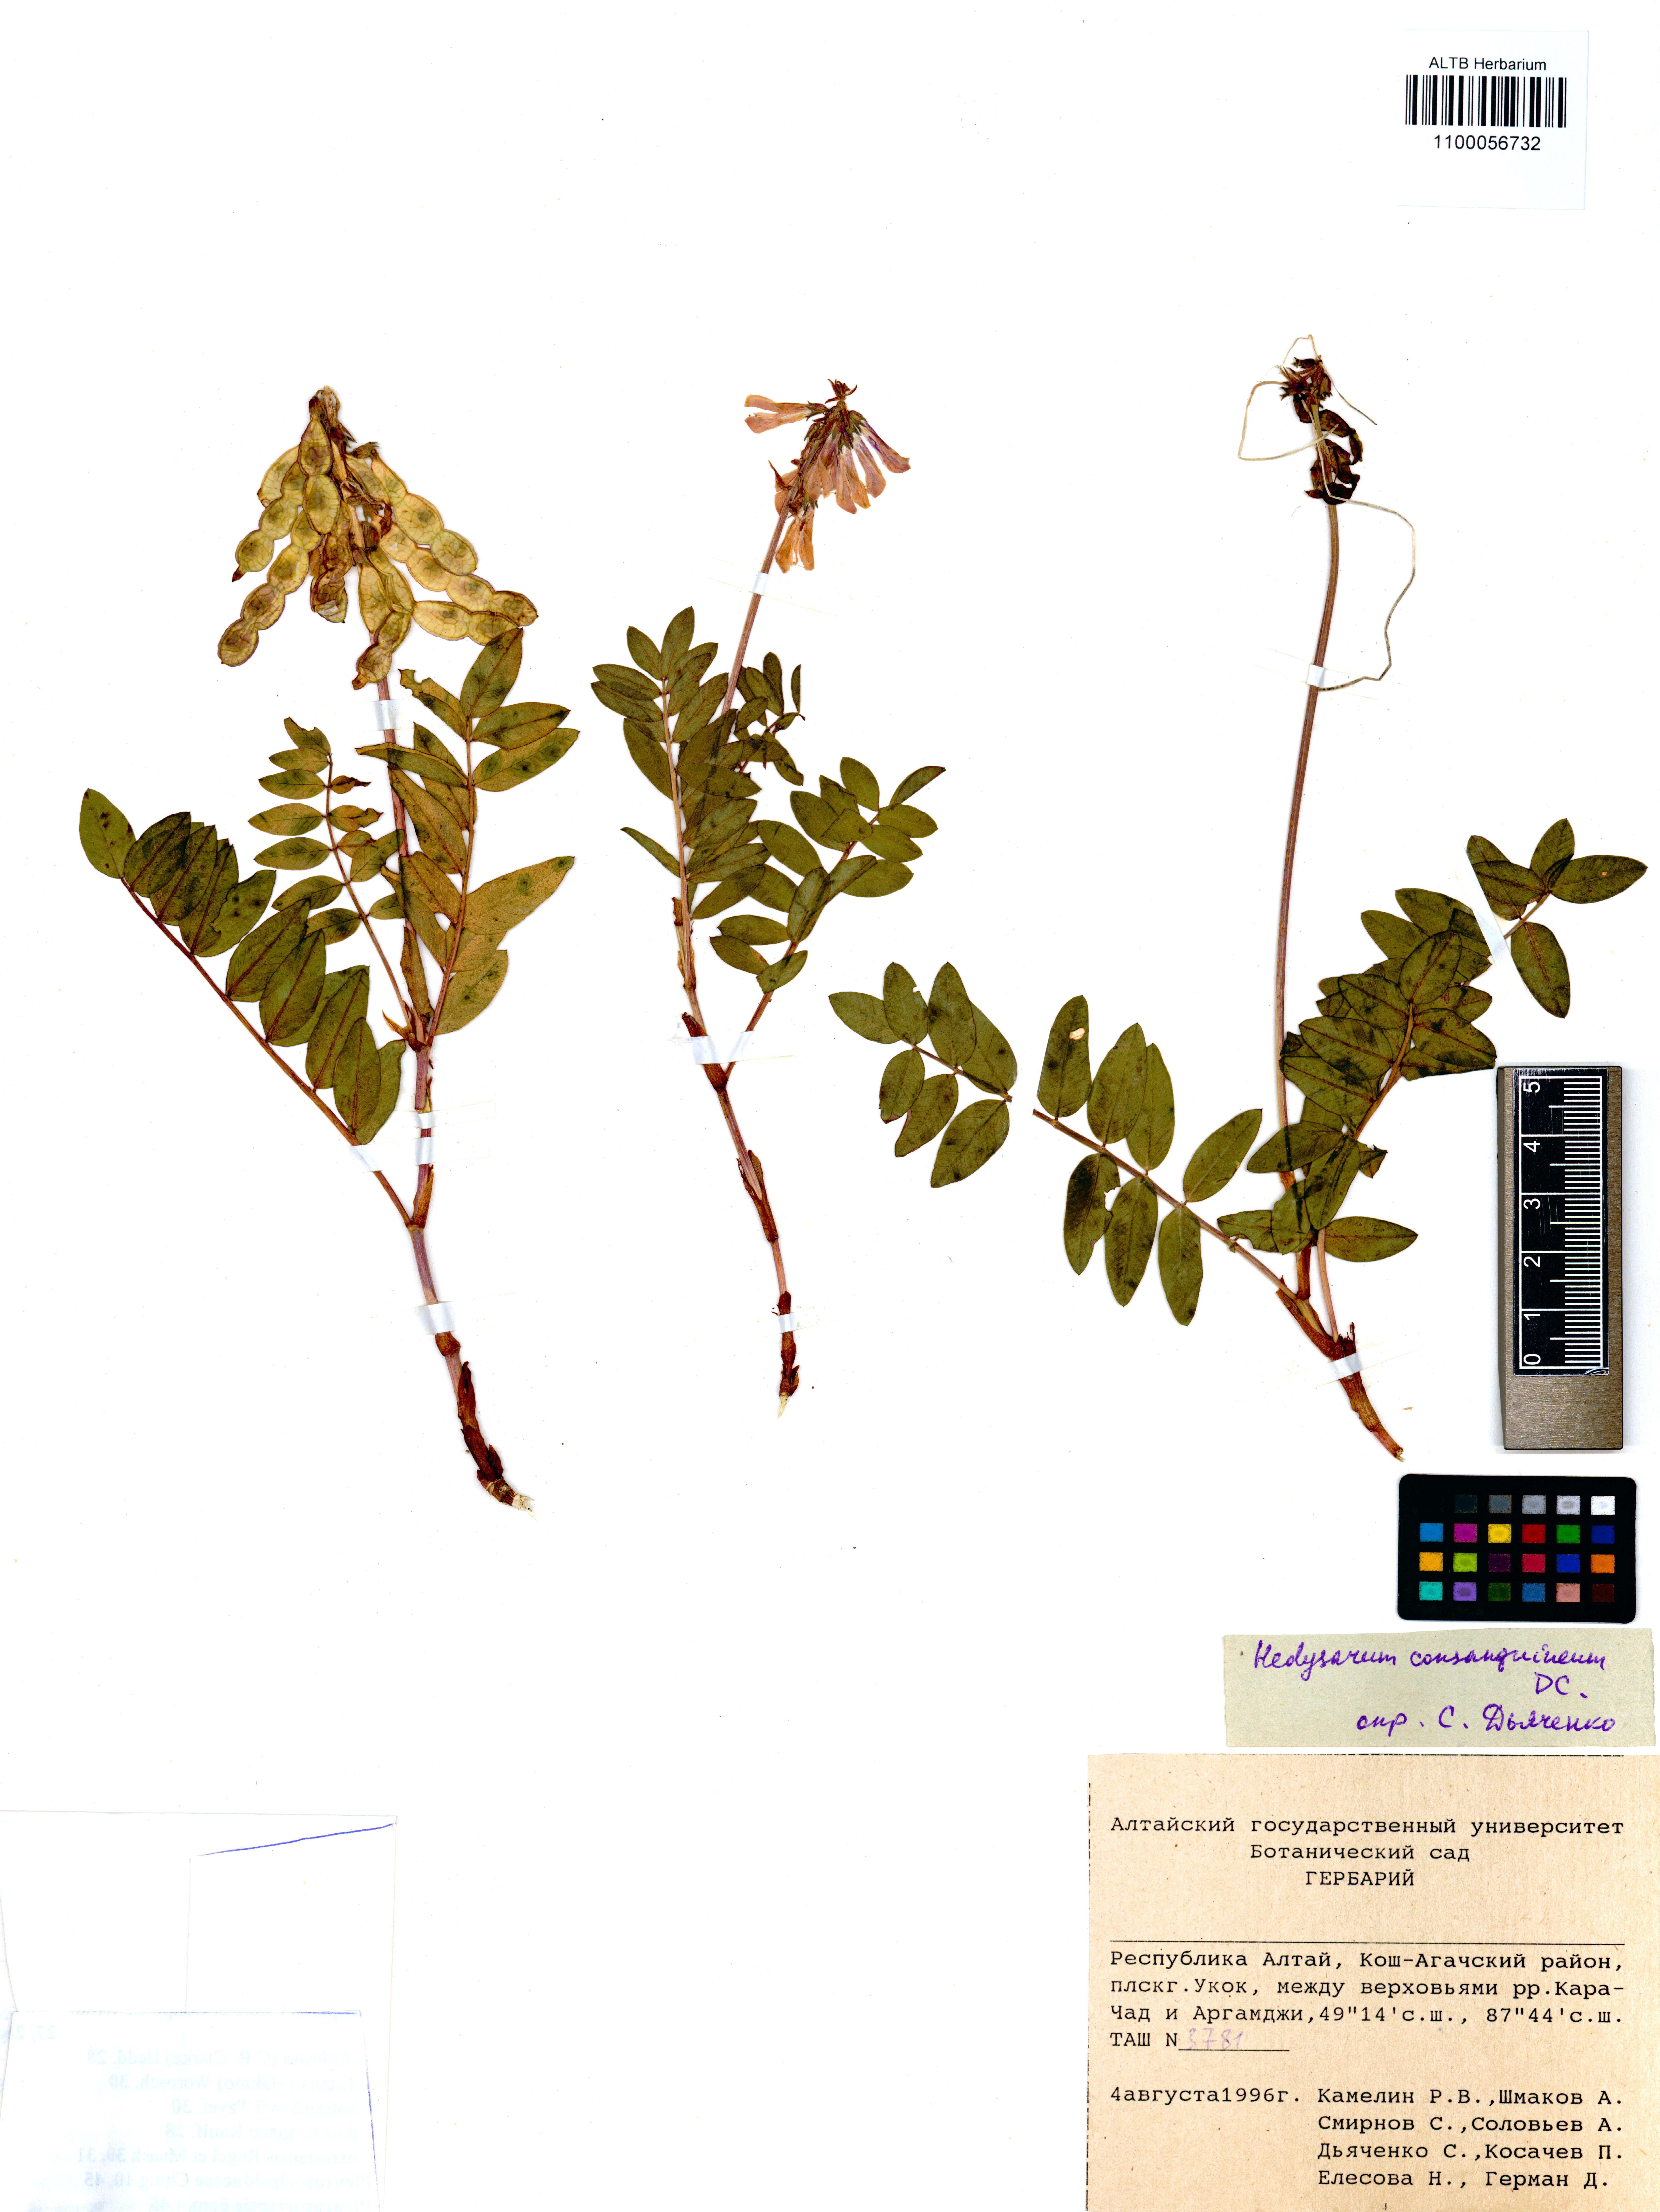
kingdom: Plantae
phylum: Tracheophyta
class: Magnoliopsida
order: Fabales
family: Fabaceae
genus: Hedysarum
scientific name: Hedysarum consanguineum
